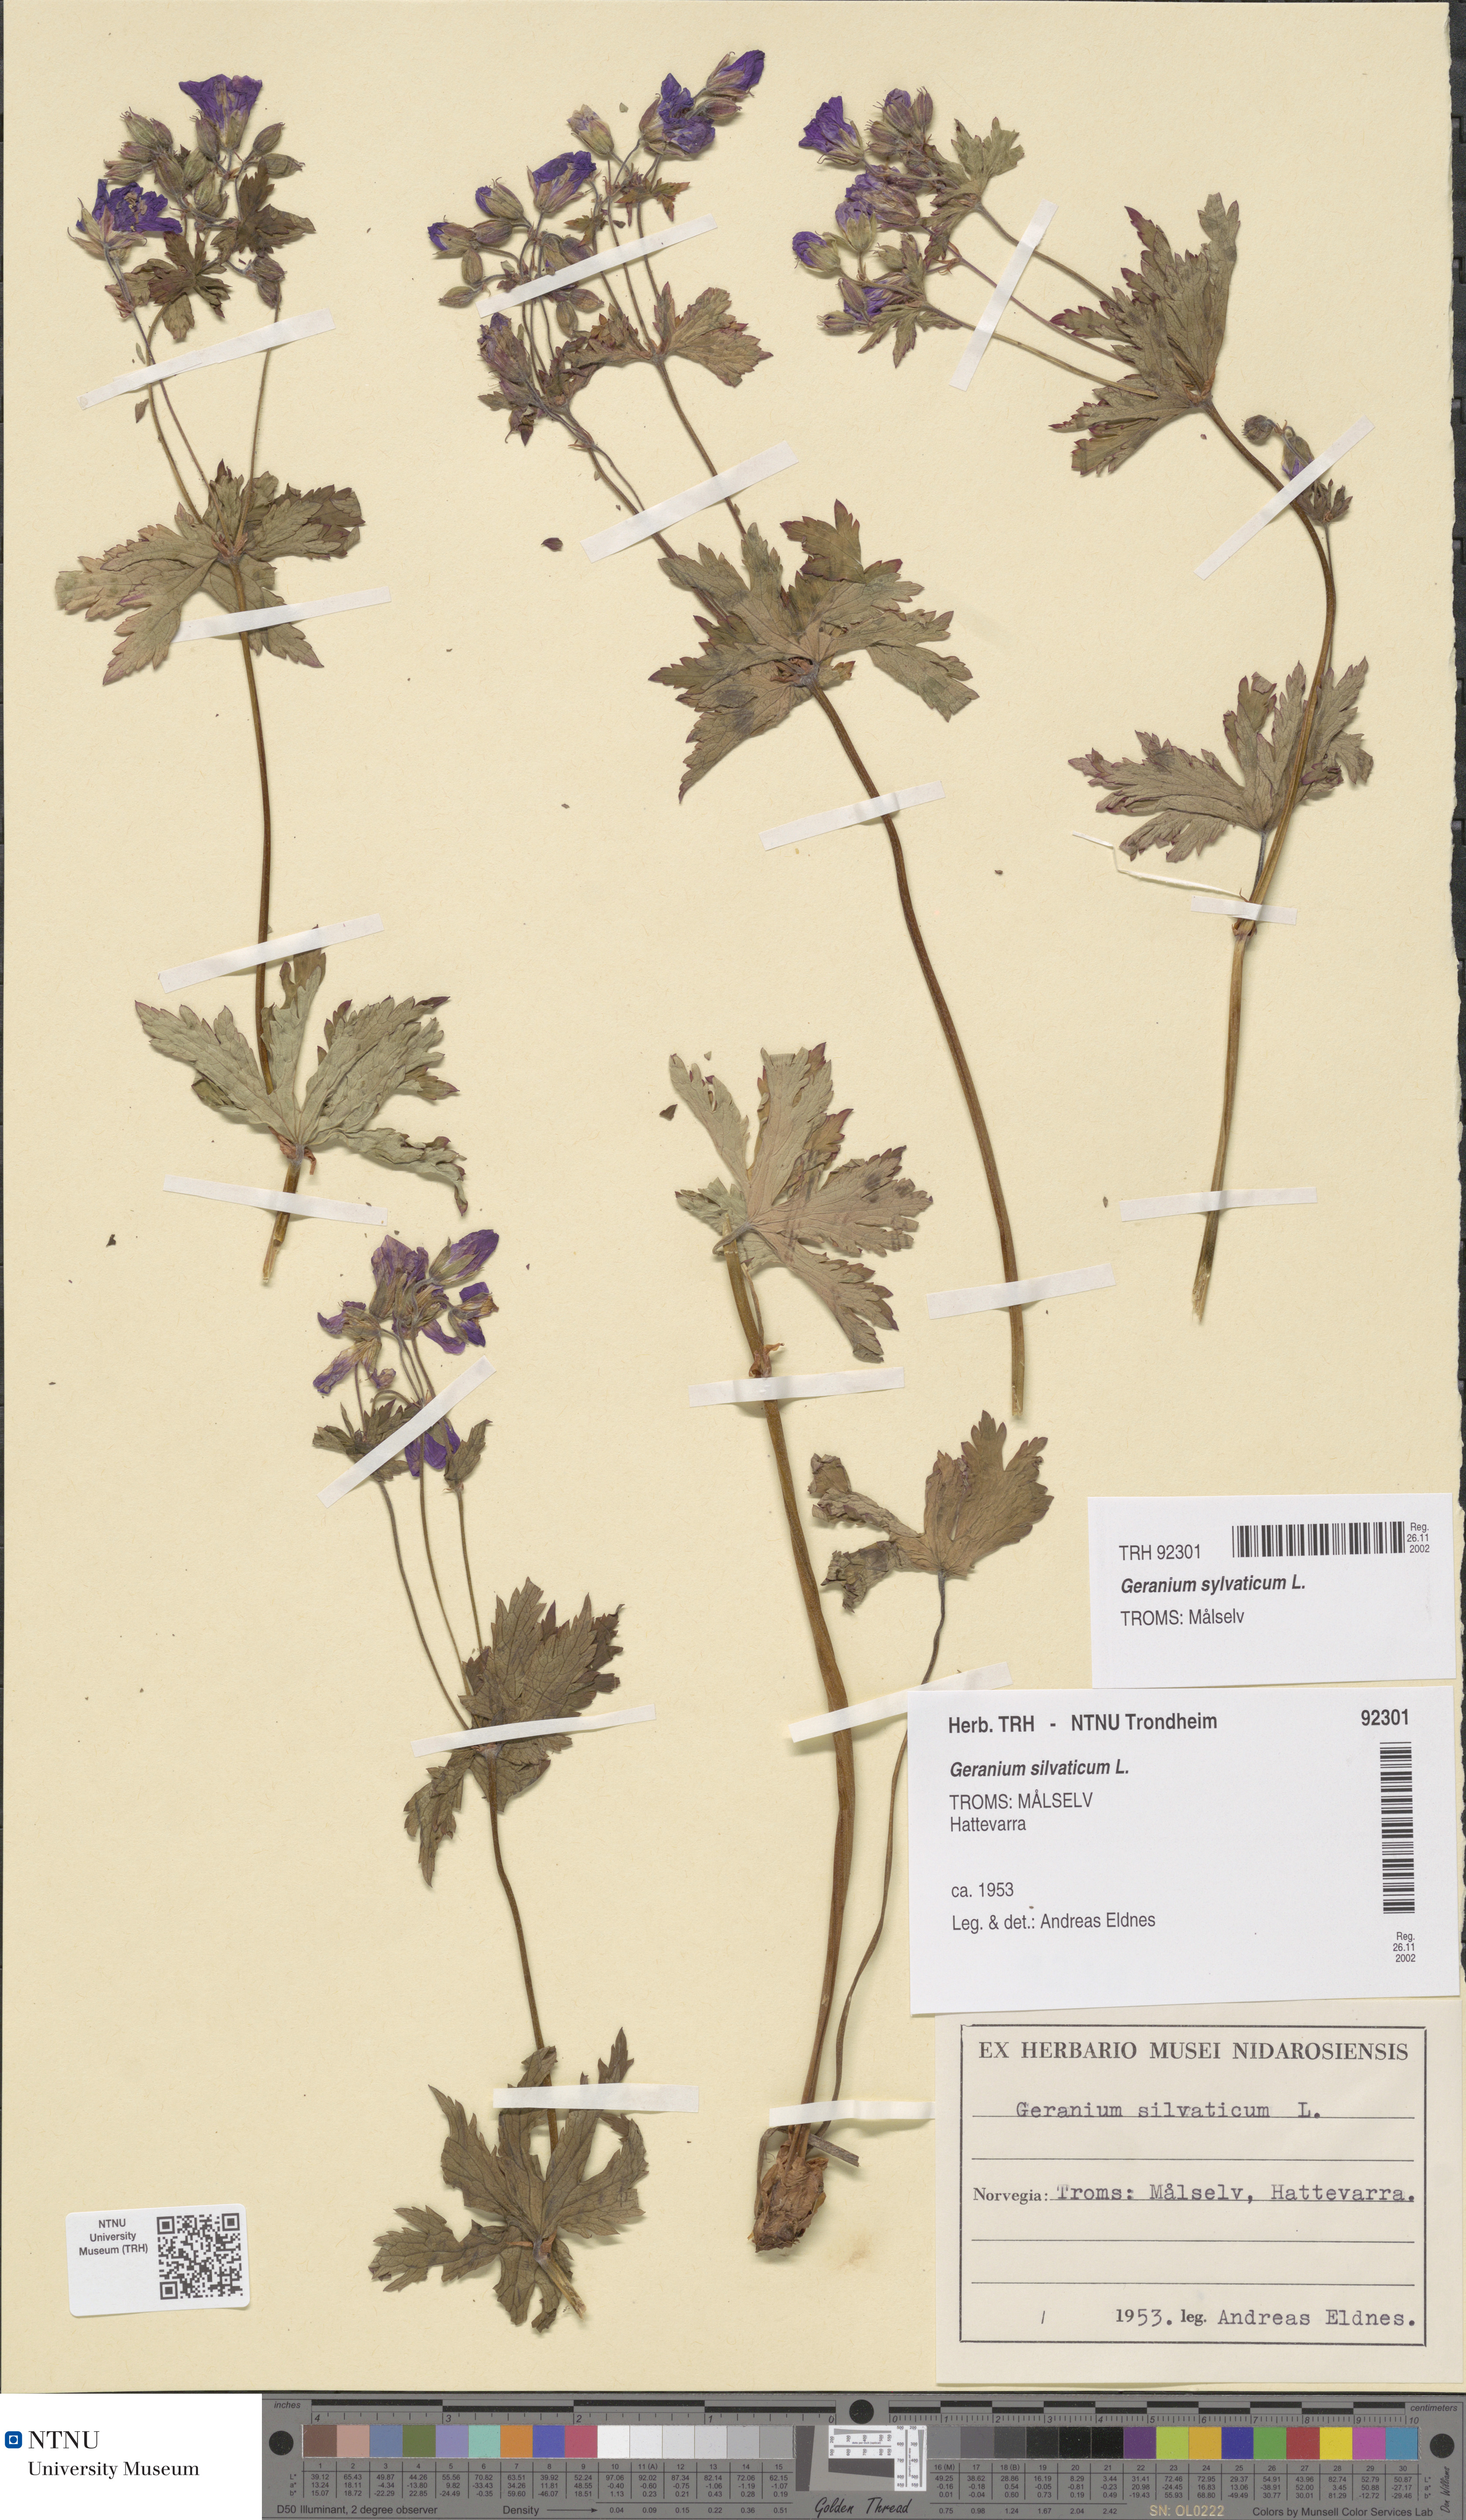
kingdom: Plantae
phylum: Tracheophyta
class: Magnoliopsida
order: Geraniales
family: Geraniaceae
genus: Geranium
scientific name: Geranium sylvaticum
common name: Wood crane's-bill
